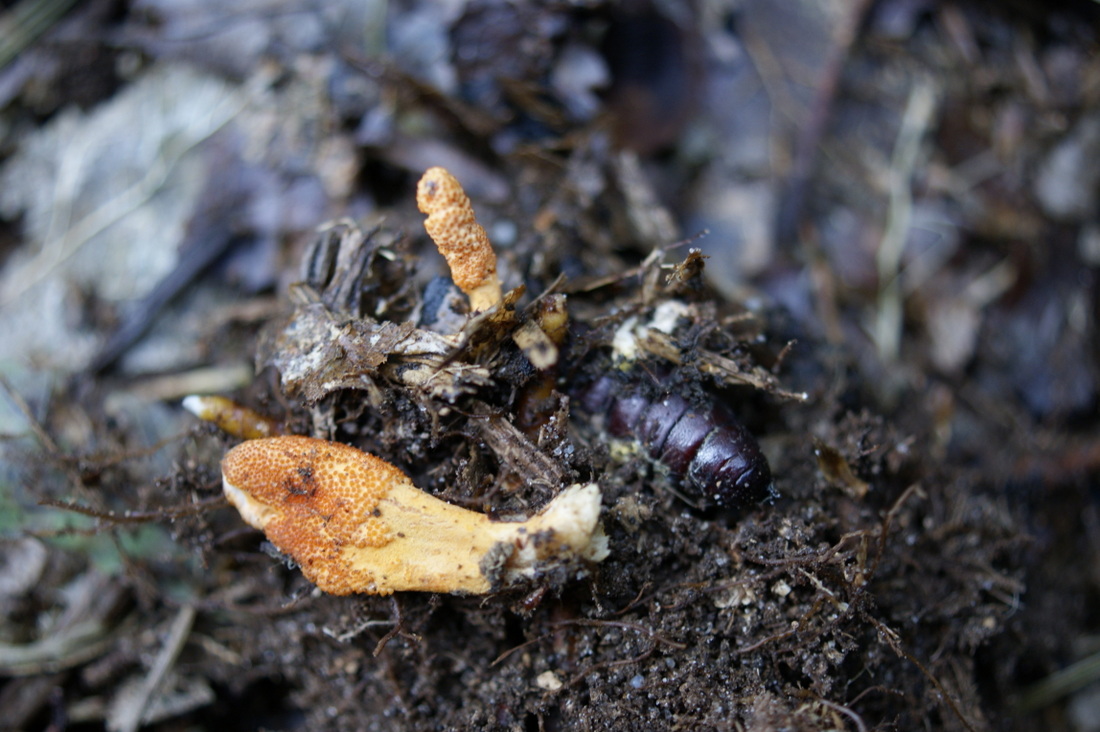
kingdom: Fungi
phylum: Ascomycota
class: Sordariomycetes
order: Hypocreales
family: Cordycipitaceae
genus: Cordyceps
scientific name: Cordyceps militaris
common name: puppe-snyltekølle
